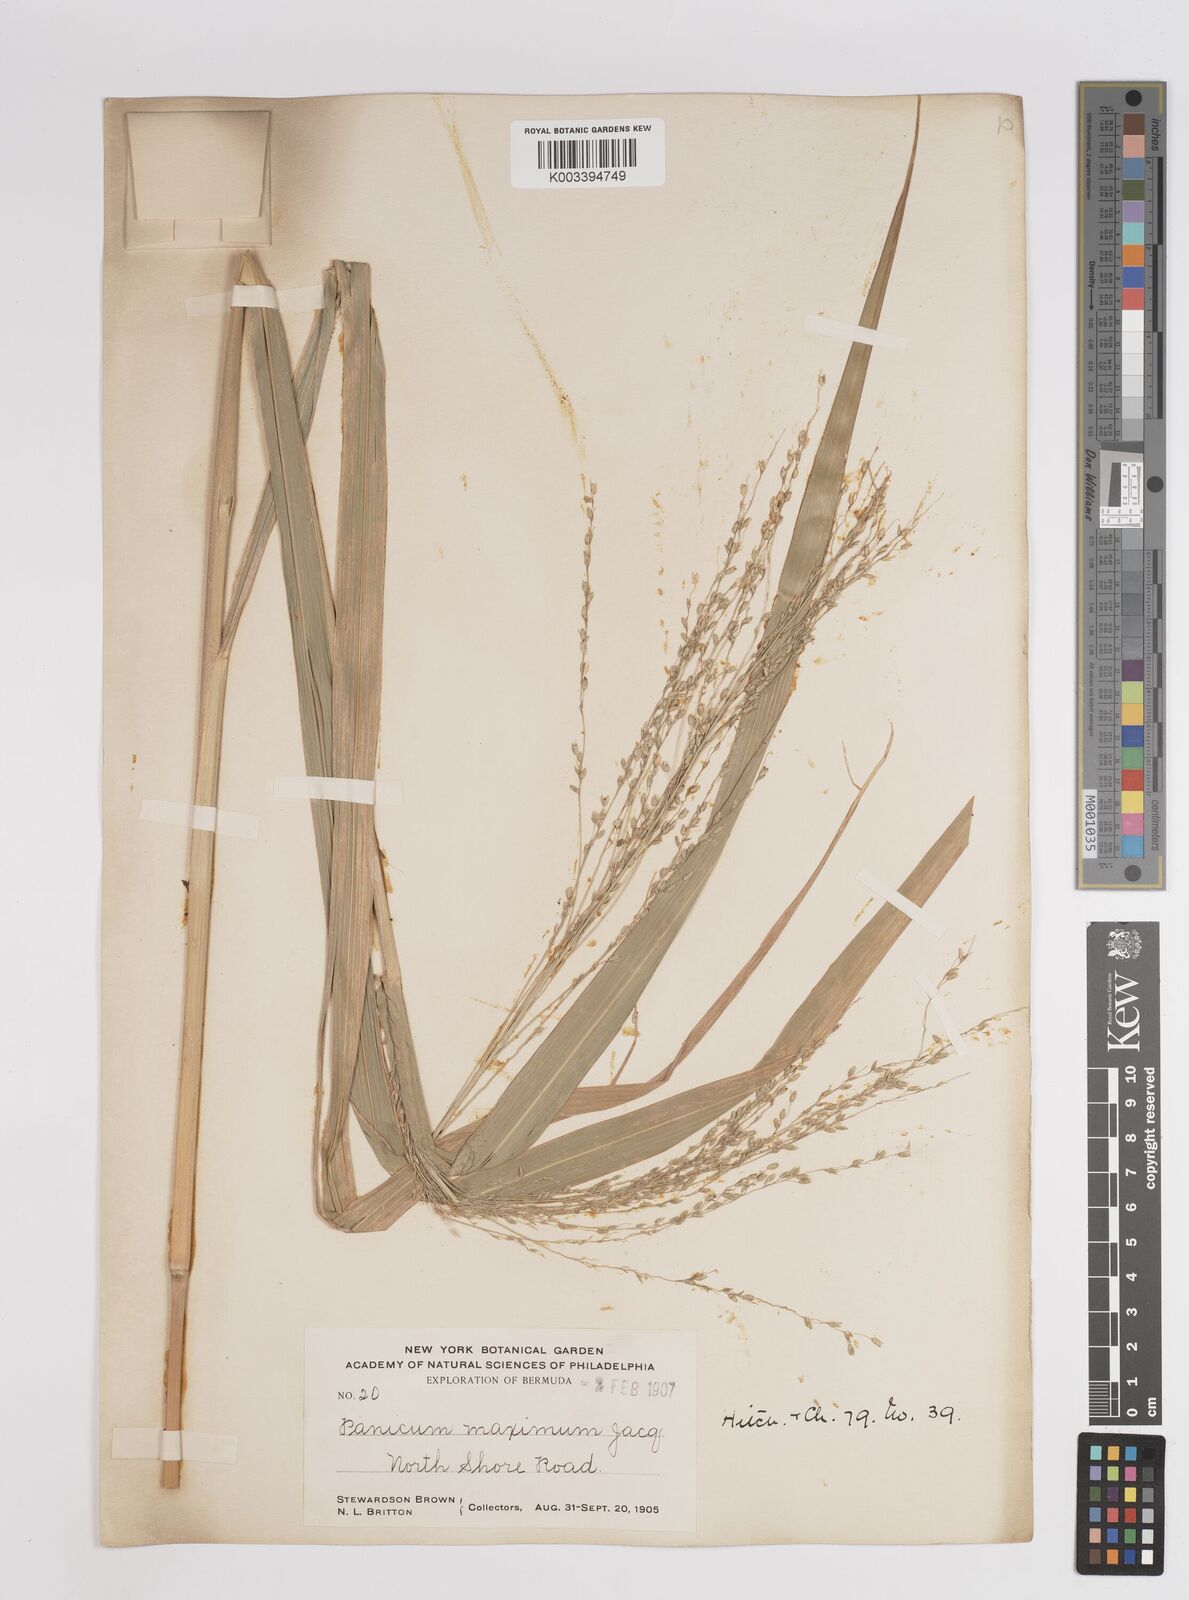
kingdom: Plantae
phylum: Tracheophyta
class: Liliopsida
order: Poales
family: Poaceae
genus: Megathyrsus
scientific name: Megathyrsus maximus
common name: Guineagrass
